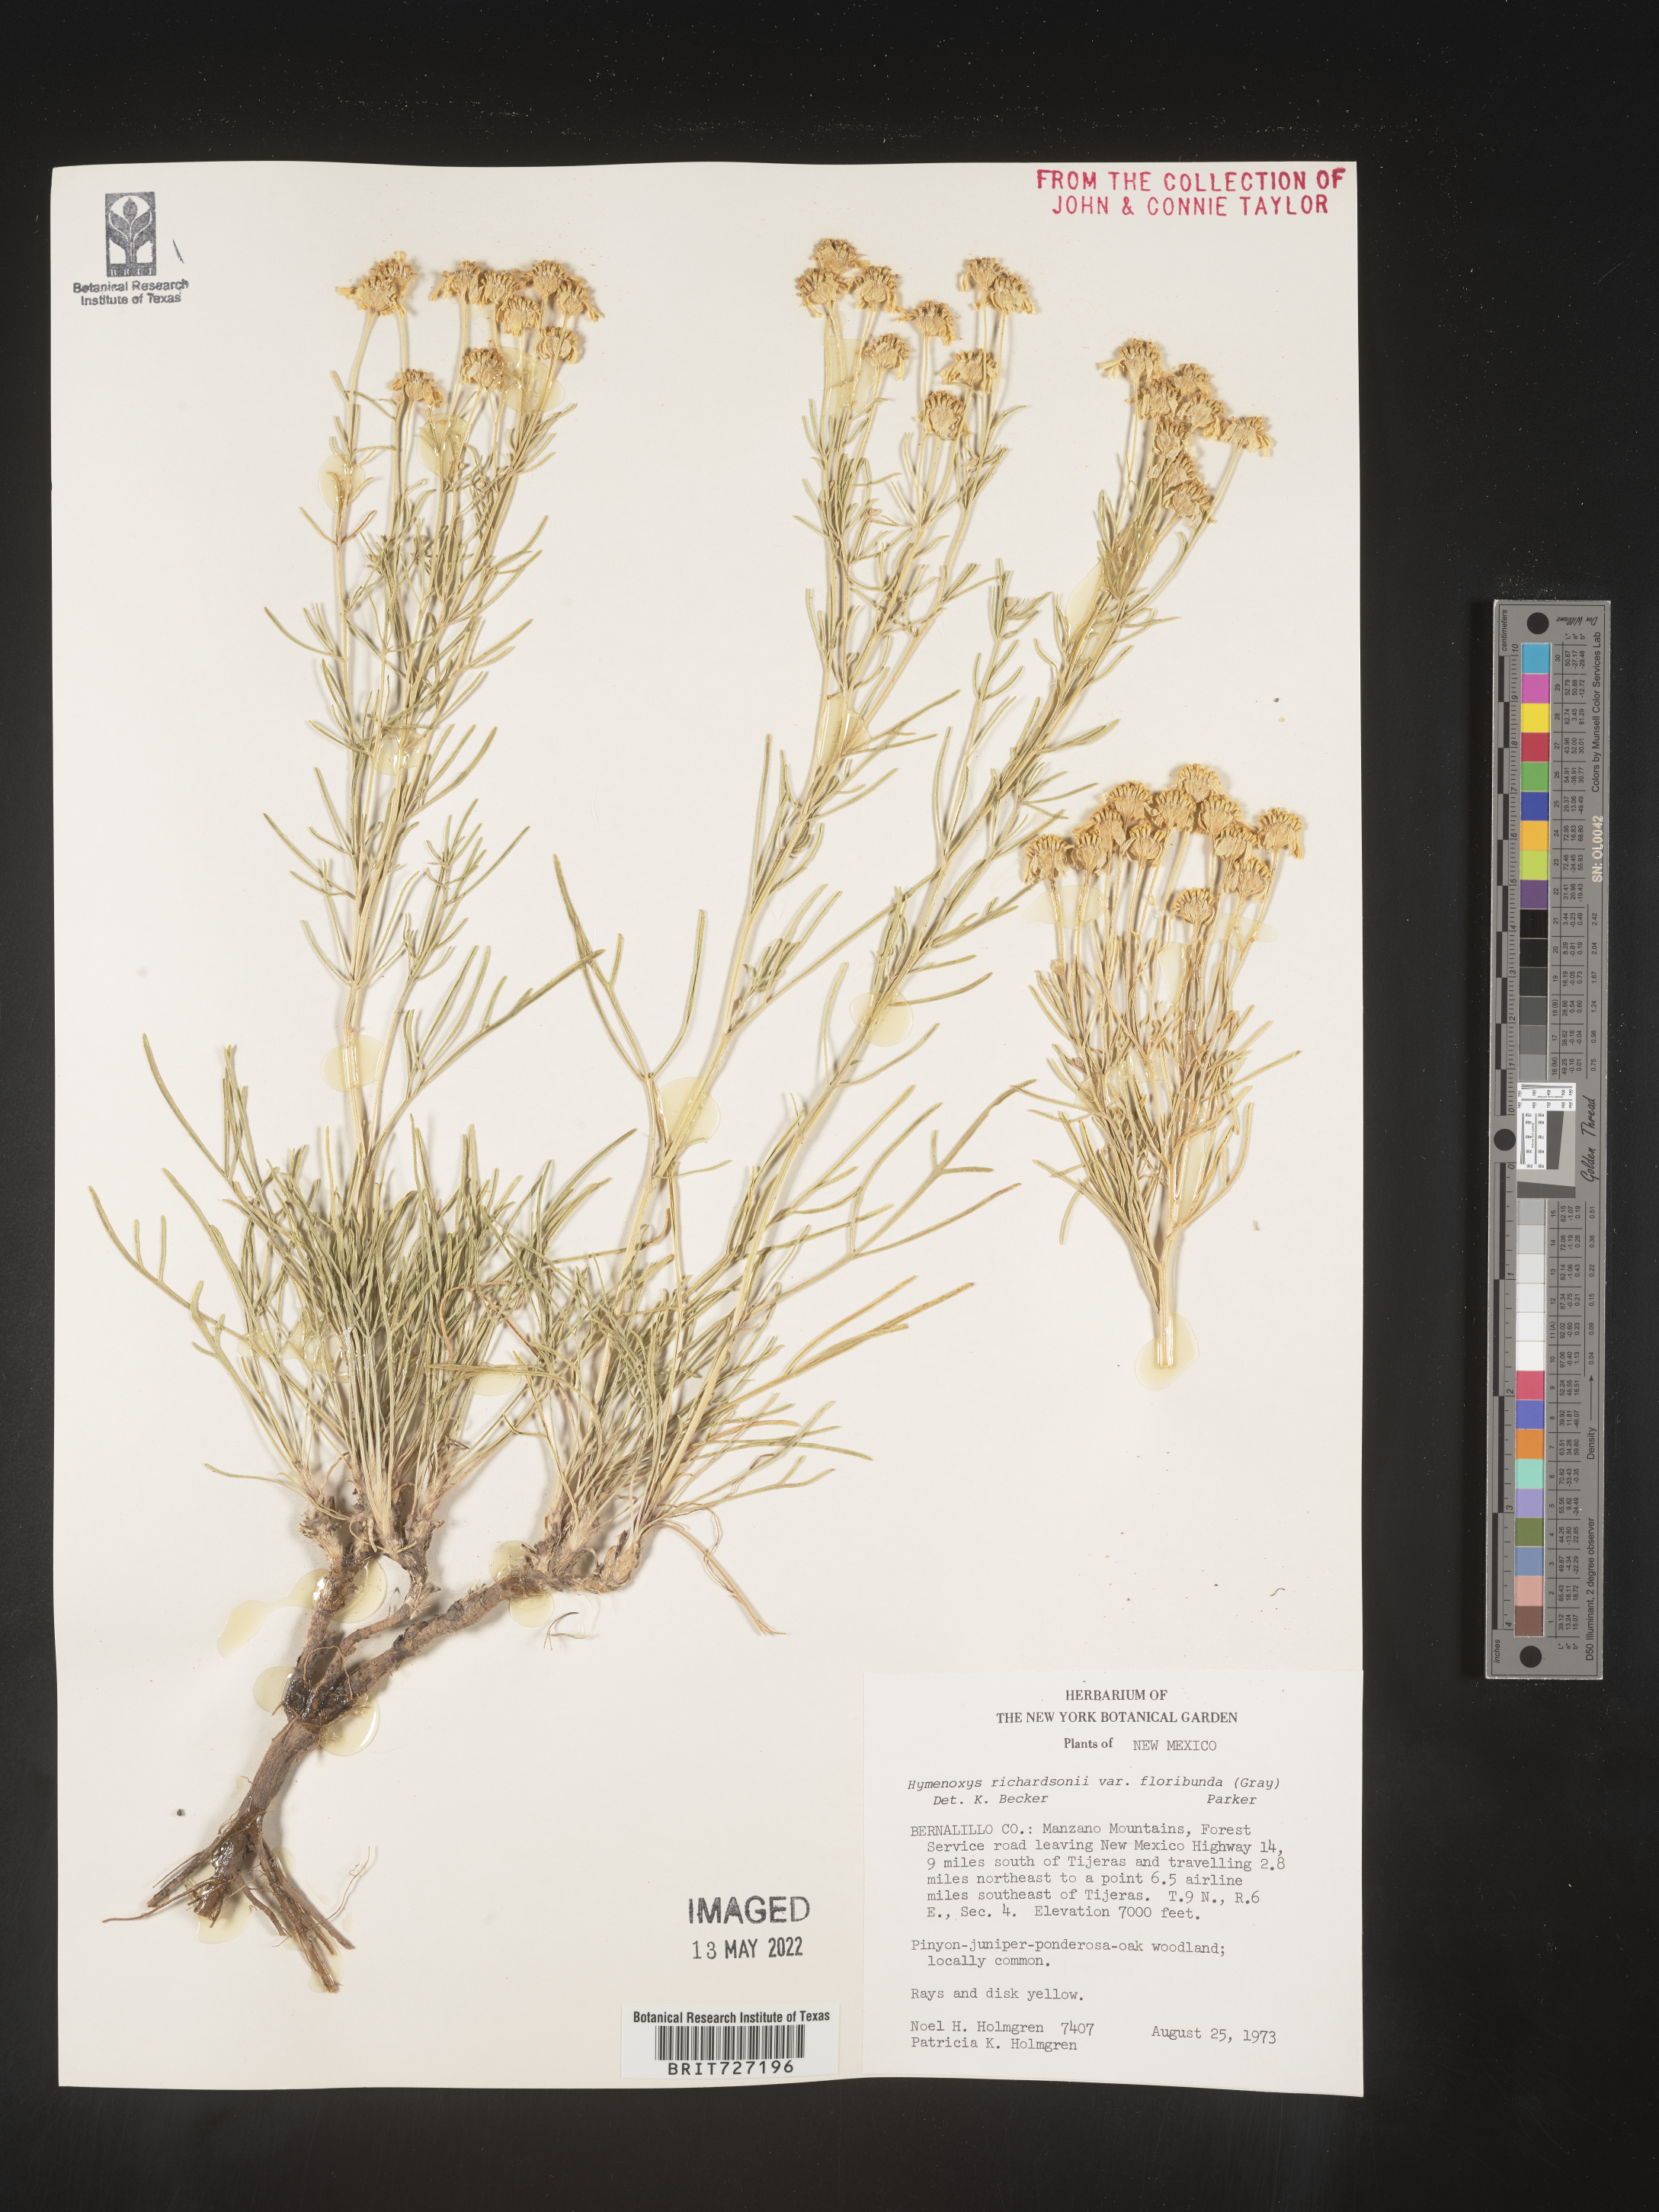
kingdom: Plantae
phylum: Tracheophyta
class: Magnoliopsida
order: Asterales
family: Asteraceae
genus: Hymenoxys
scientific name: Hymenoxys richardsonii
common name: Pingue rubberweed
